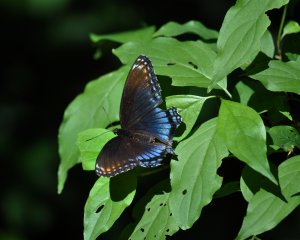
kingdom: Animalia
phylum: Arthropoda
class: Insecta
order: Lepidoptera
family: Nymphalidae
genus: Limenitis
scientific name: Limenitis astyanax
